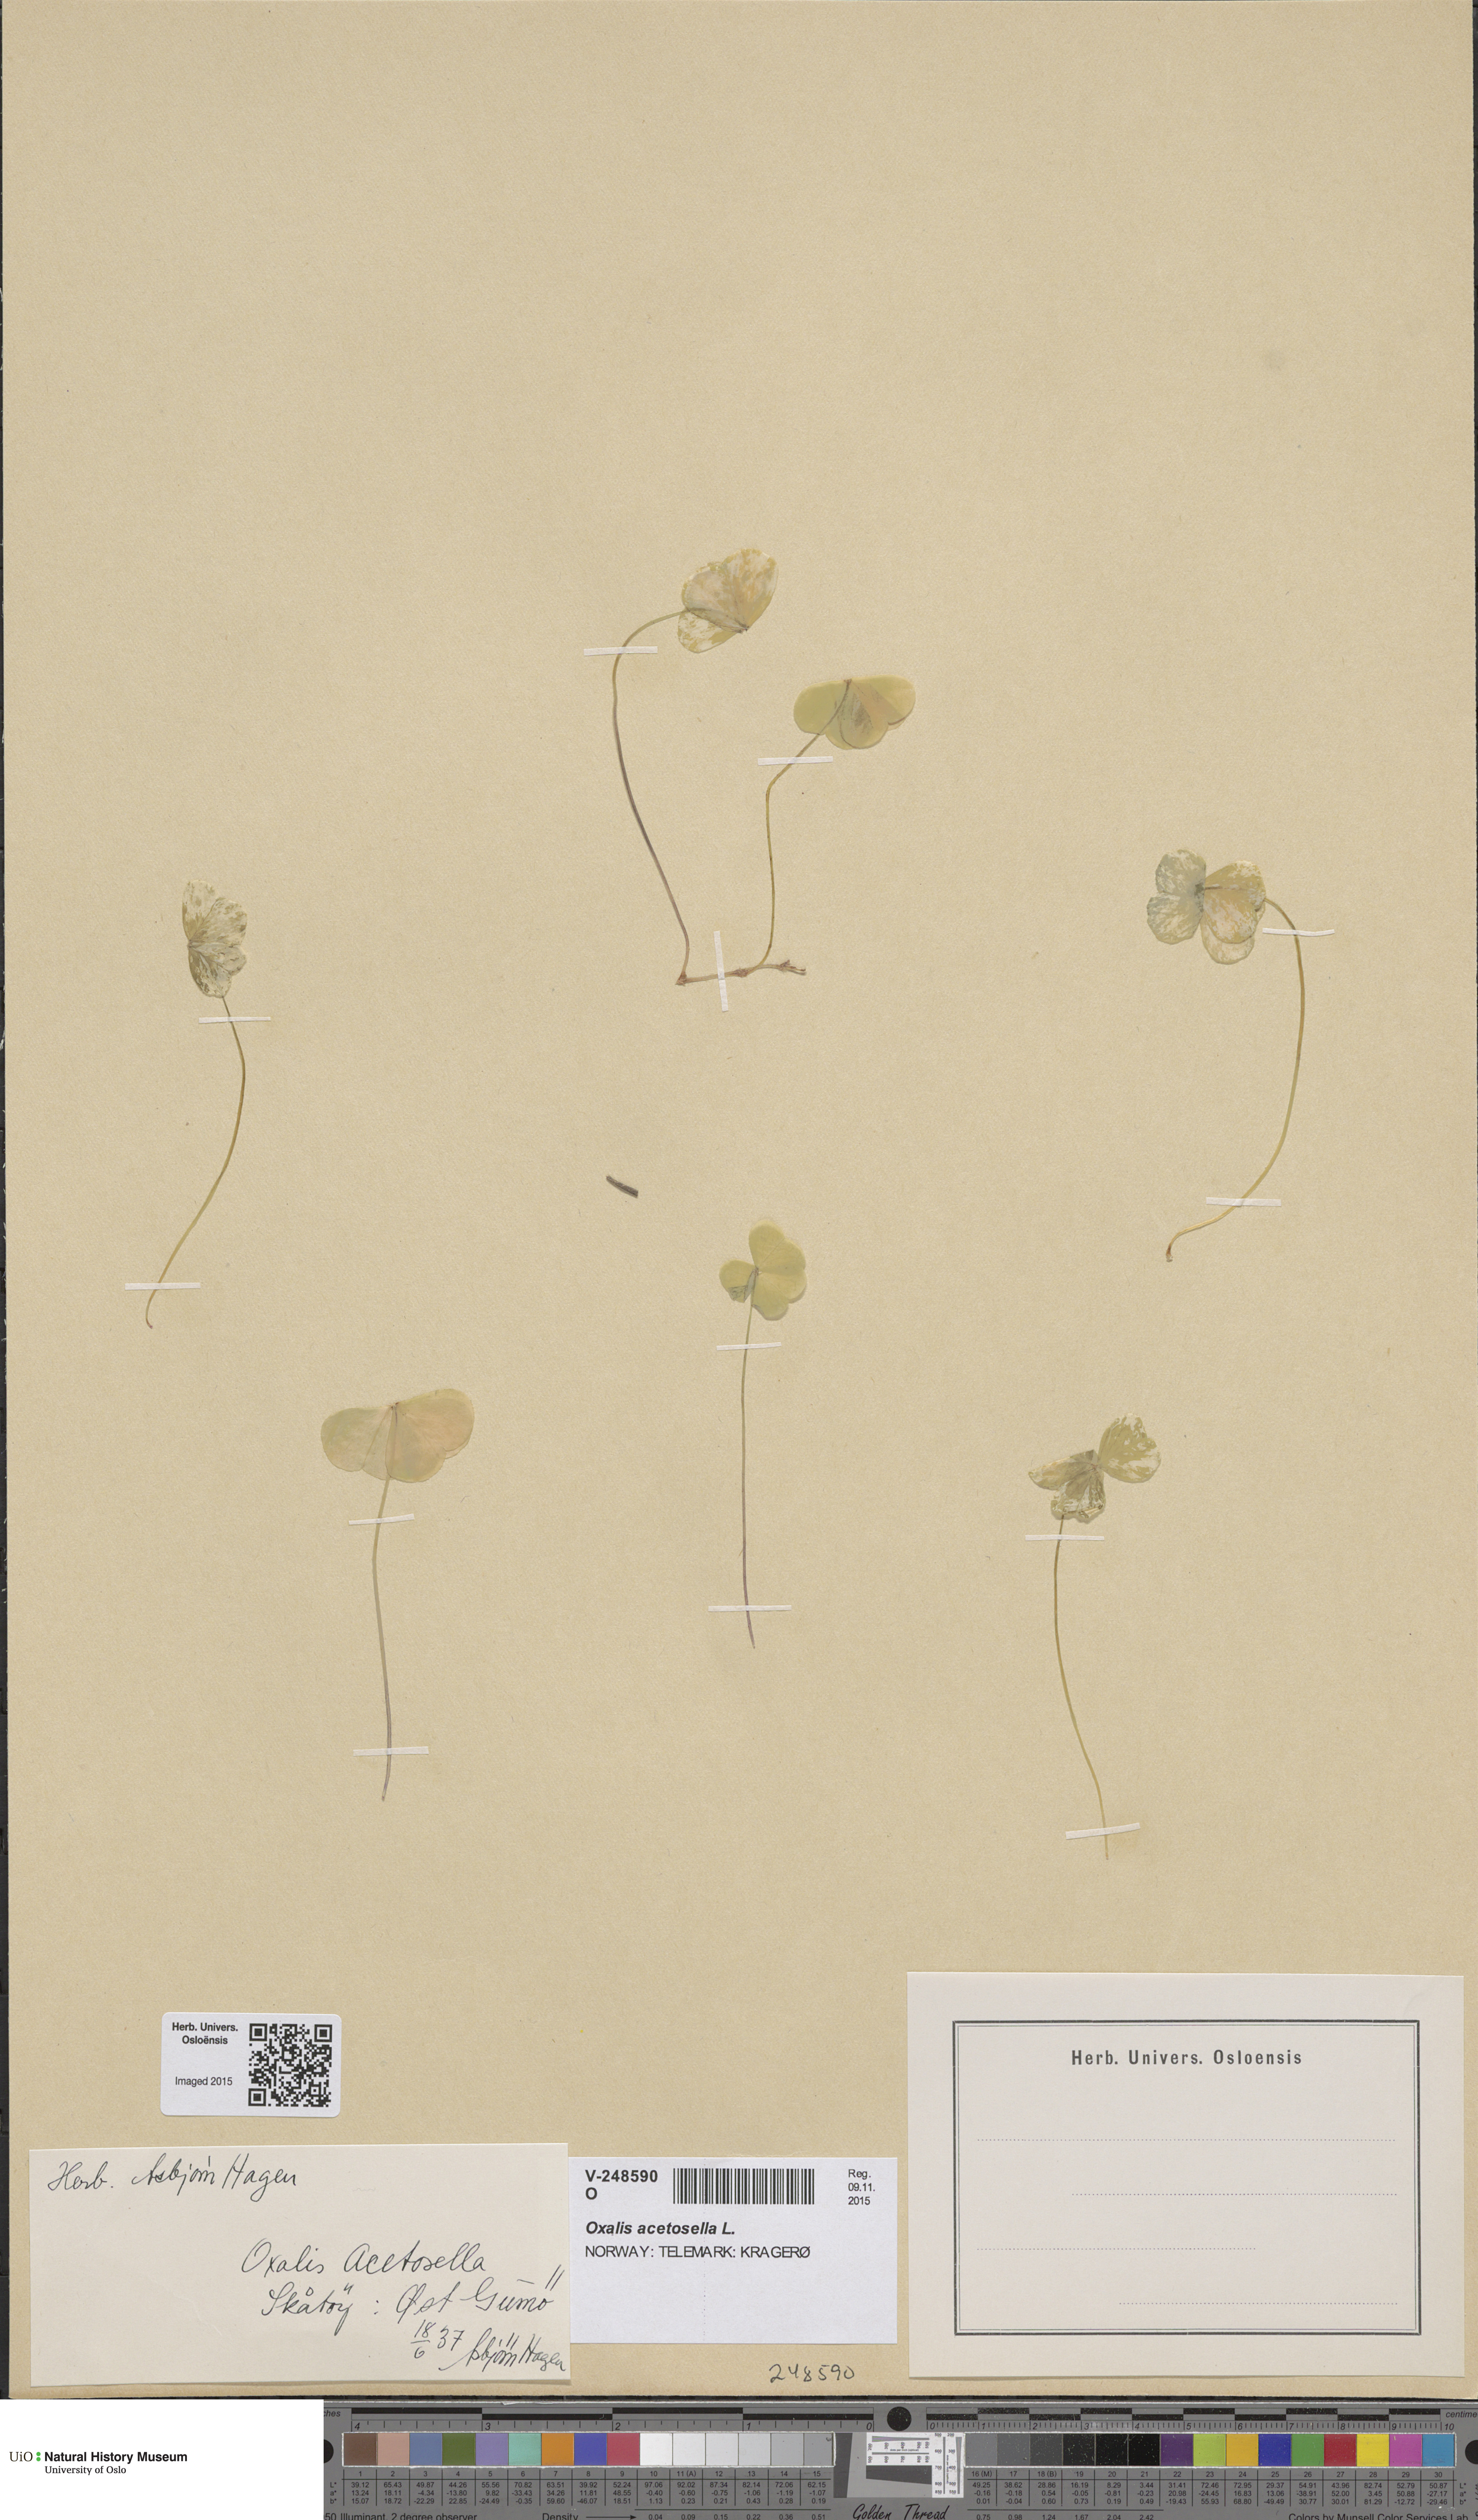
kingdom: Plantae
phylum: Tracheophyta
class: Magnoliopsida
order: Oxalidales
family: Oxalidaceae
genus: Oxalis
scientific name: Oxalis acetosella
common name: Wood-sorrel
